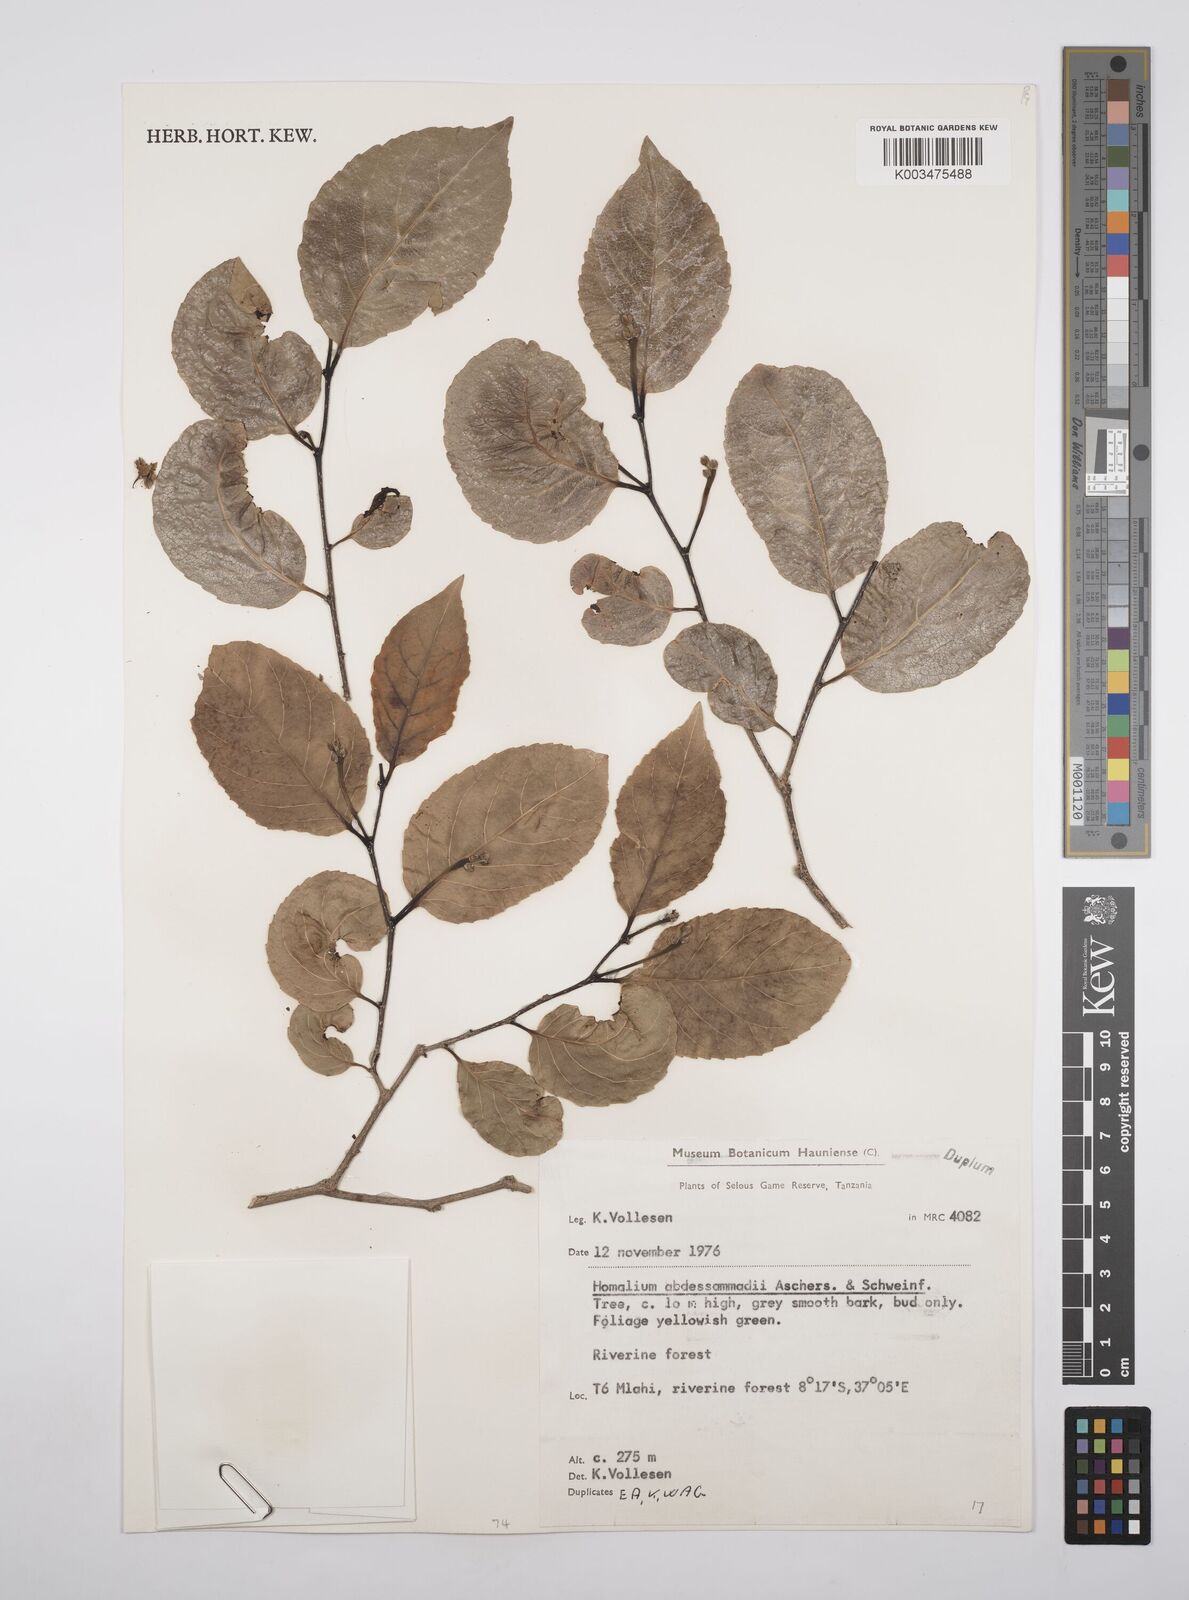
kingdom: Plantae
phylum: Tracheophyta
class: Magnoliopsida
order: Malpighiales
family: Salicaceae
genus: Homalium
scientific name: Homalium abdessammadii
